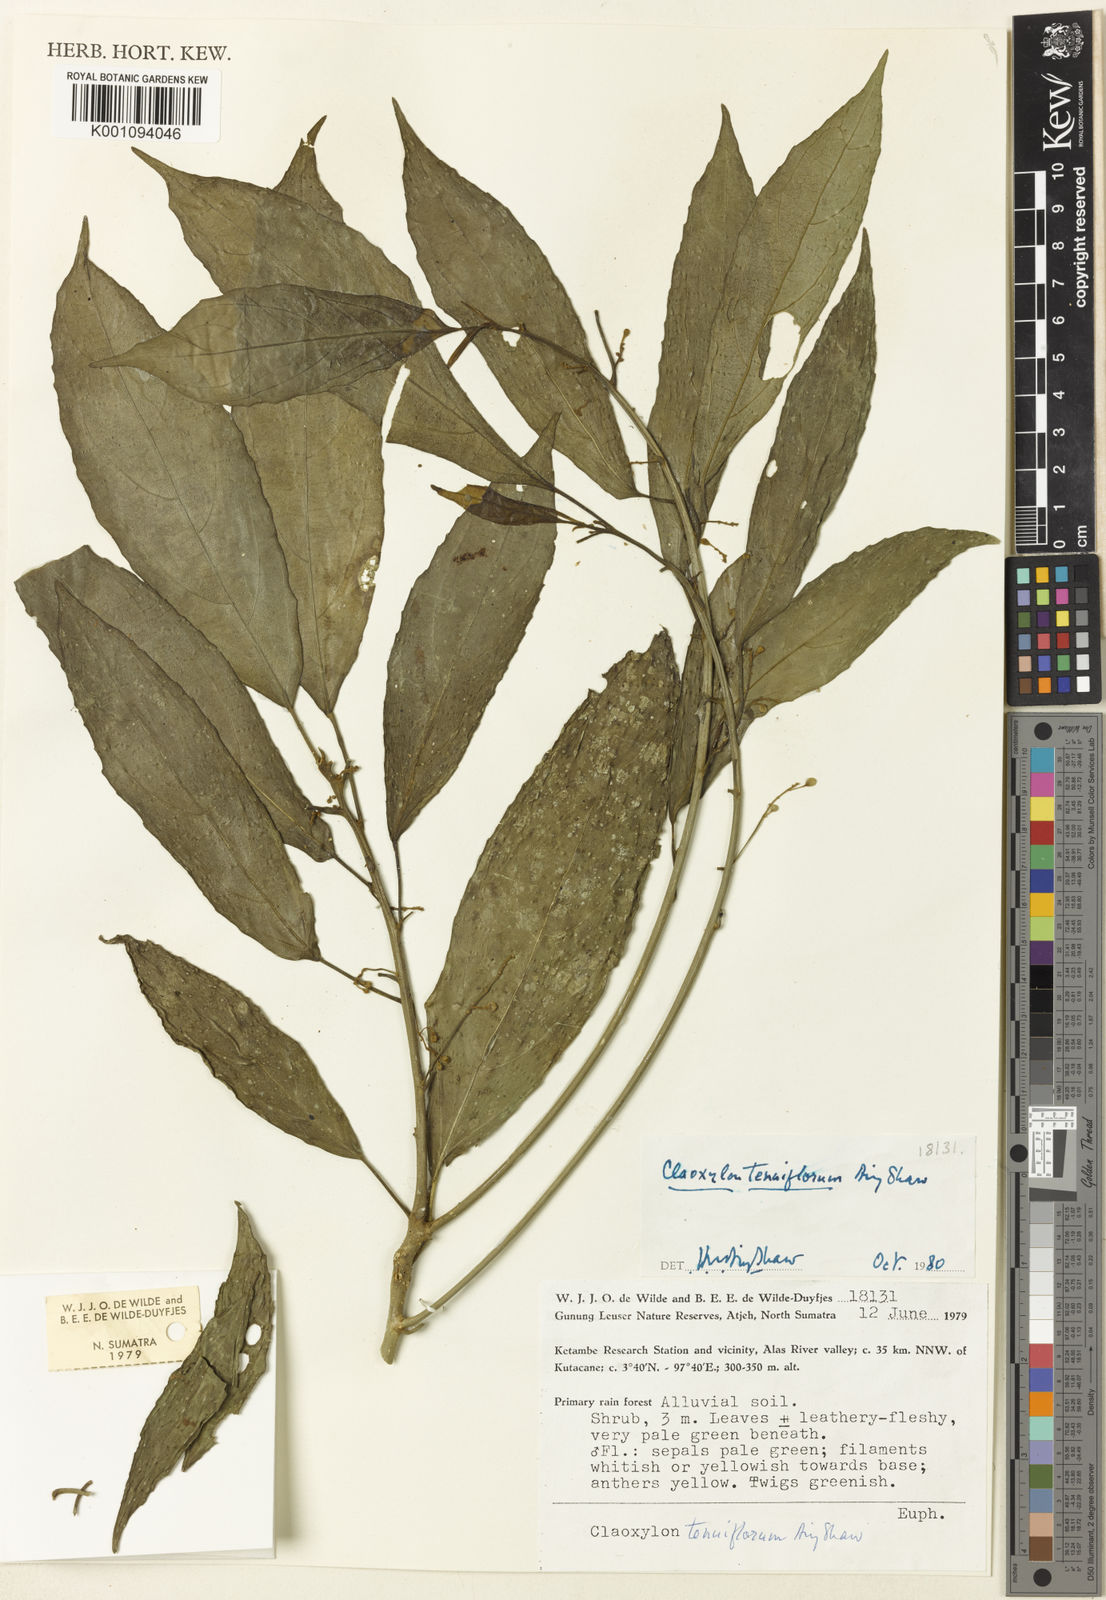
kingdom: Plantae
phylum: Tracheophyta
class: Magnoliopsida
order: Malpighiales
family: Euphorbiaceae
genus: Claoxylon
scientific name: Claoxylon tenuiflorum
